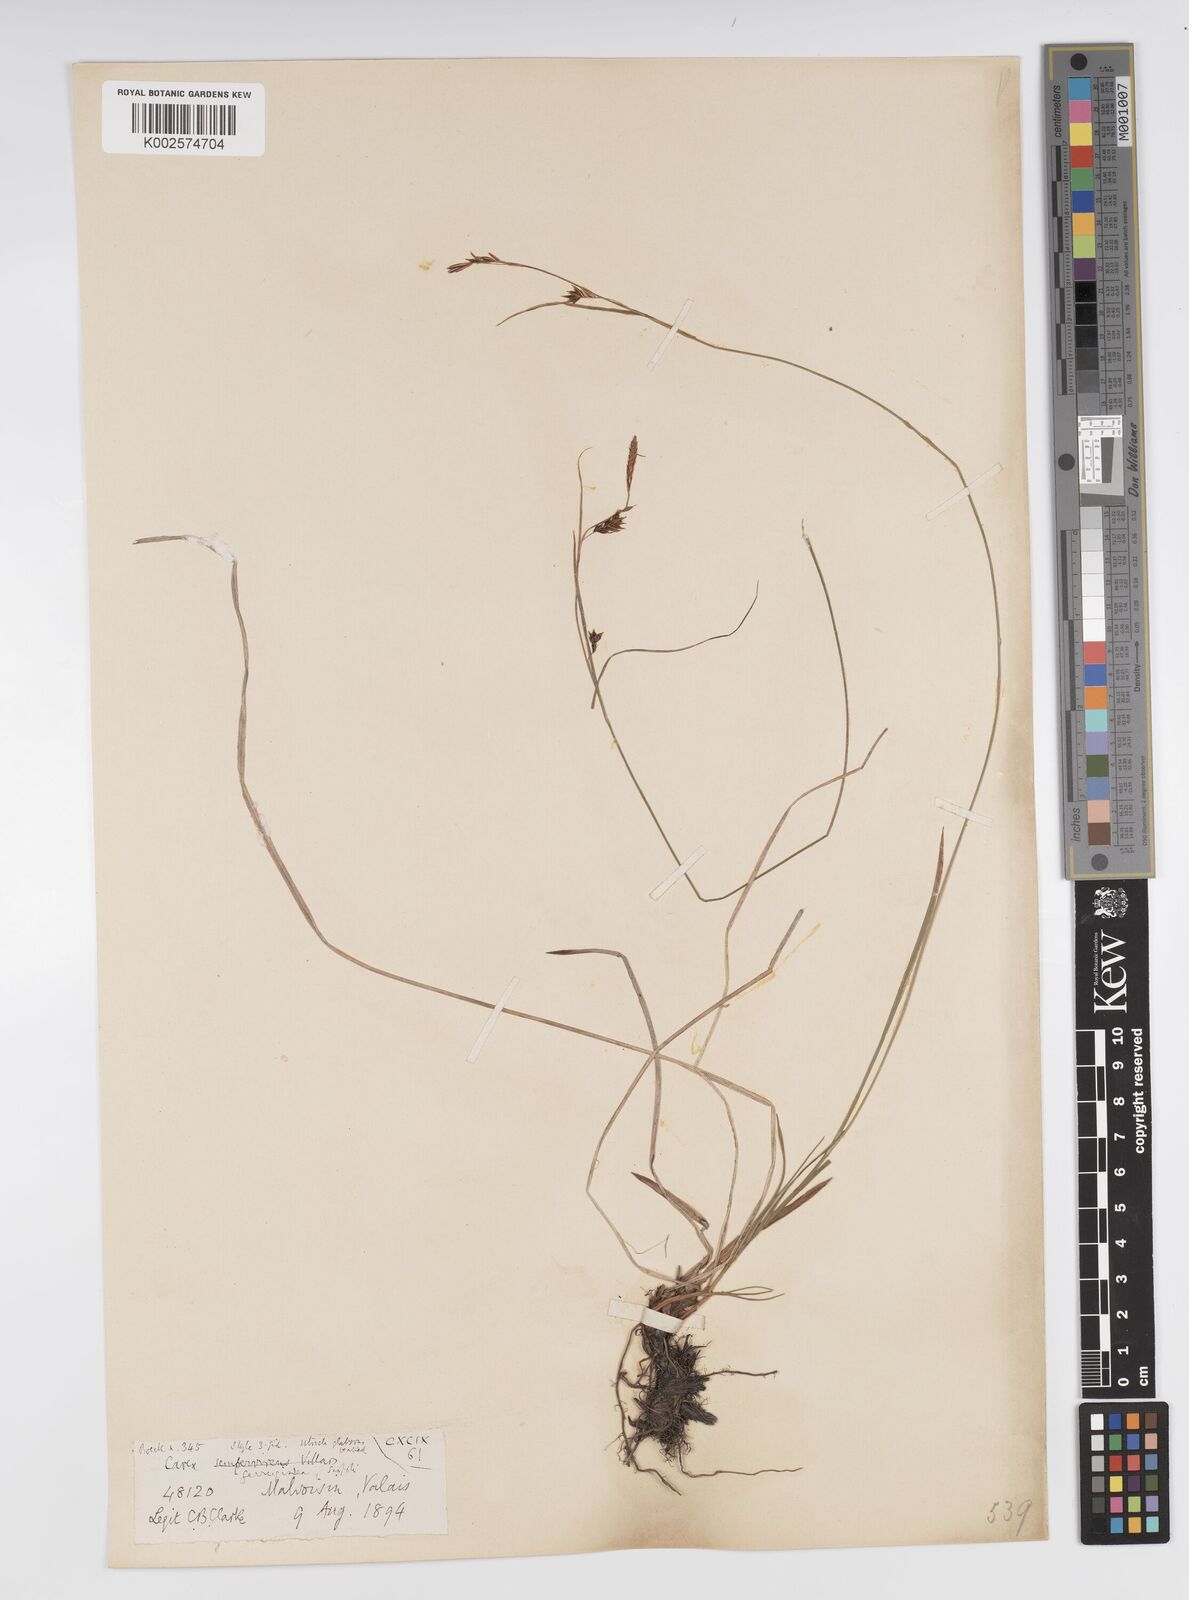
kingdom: Plantae
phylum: Tracheophyta
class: Liliopsida
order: Poales
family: Cyperaceae
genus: Carex
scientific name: Carex ferruginea
